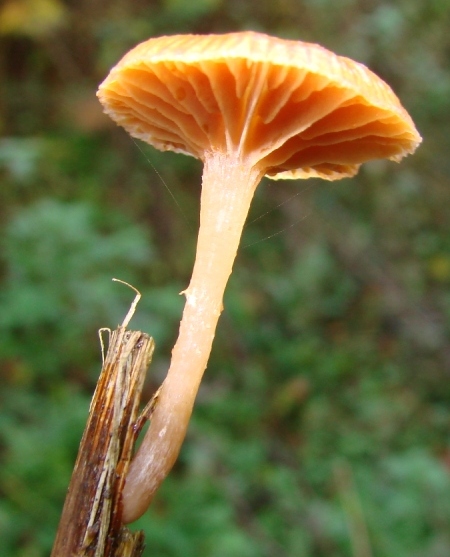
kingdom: Fungi
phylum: Basidiomycota
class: Agaricomycetes
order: Agaricales
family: Tubariaceae
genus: Tubaria
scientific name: Tubaria furfuracea
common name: kliddet fnughat
